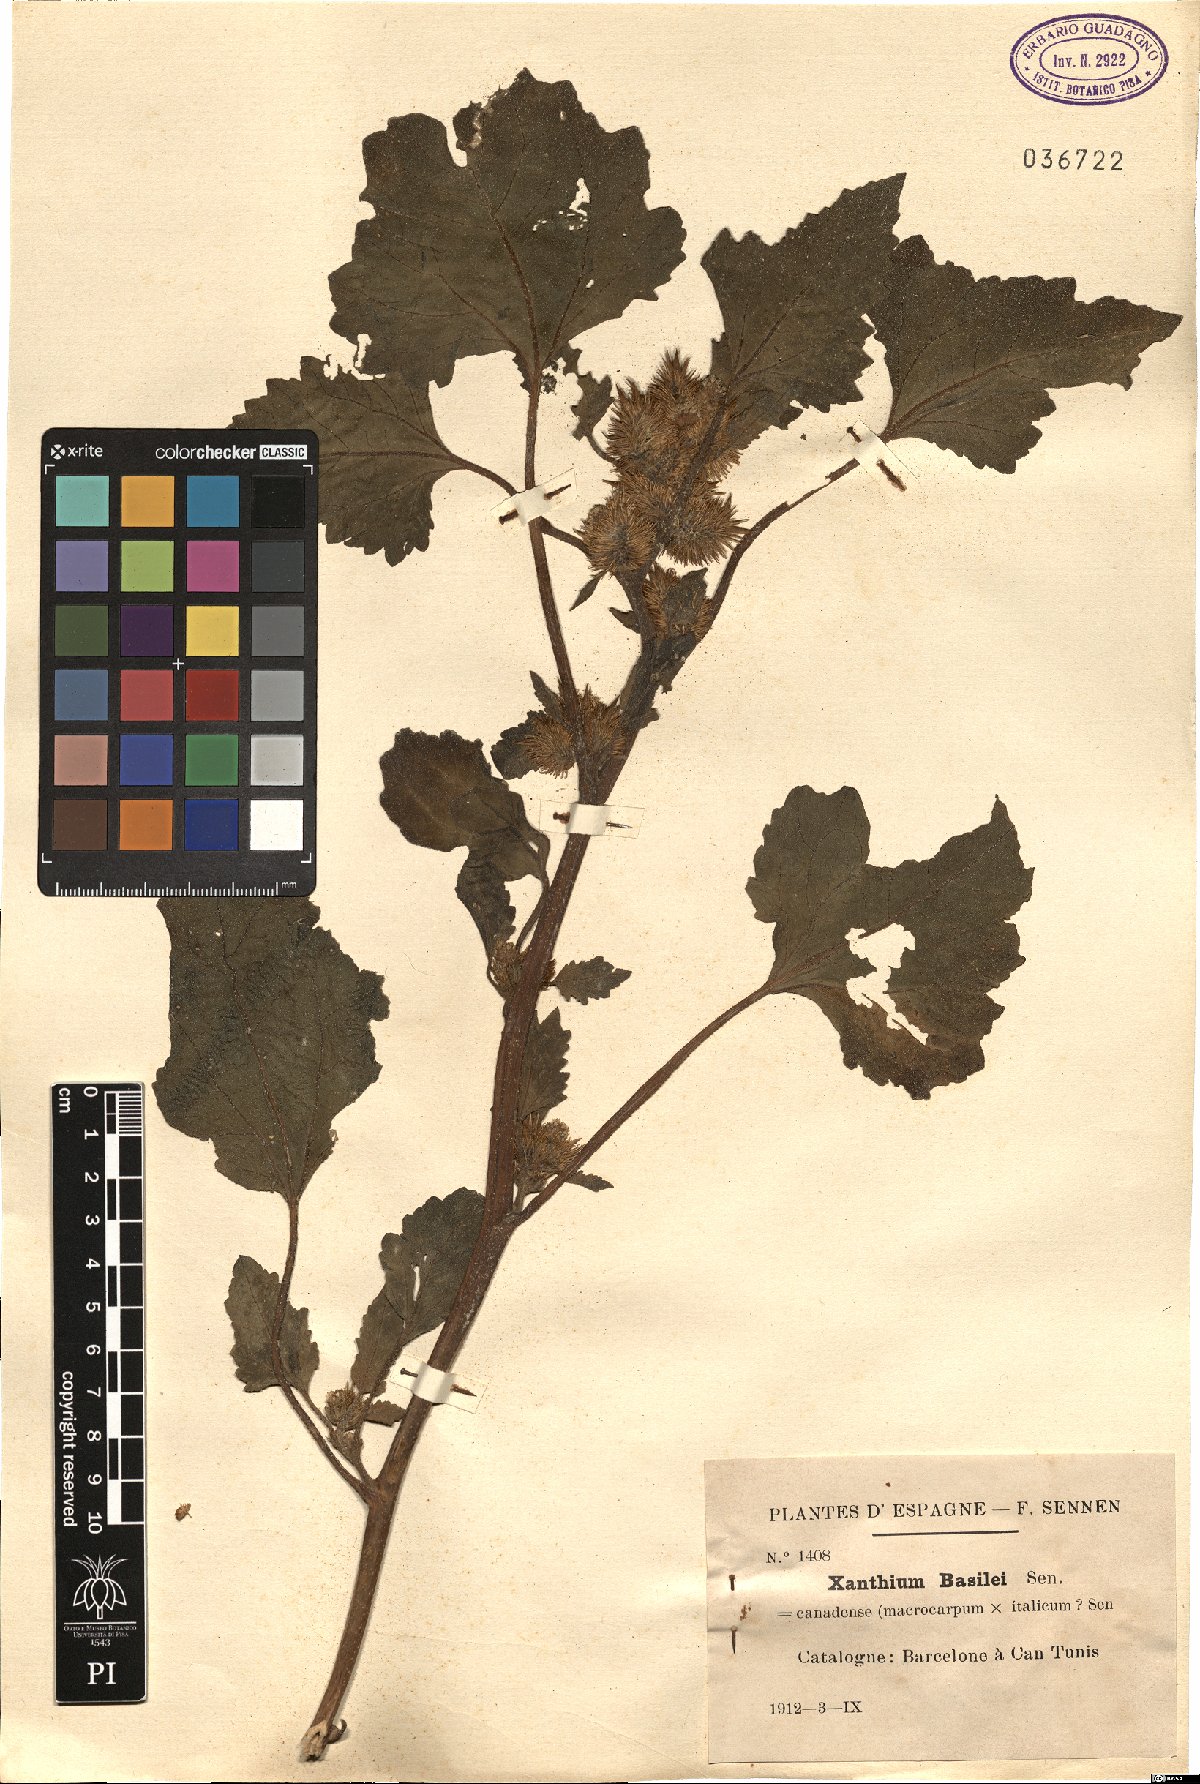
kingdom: Plantae
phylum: Tracheophyta
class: Magnoliopsida
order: Asterales
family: Asteraceae
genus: Xanthium
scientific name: Xanthium basilei
